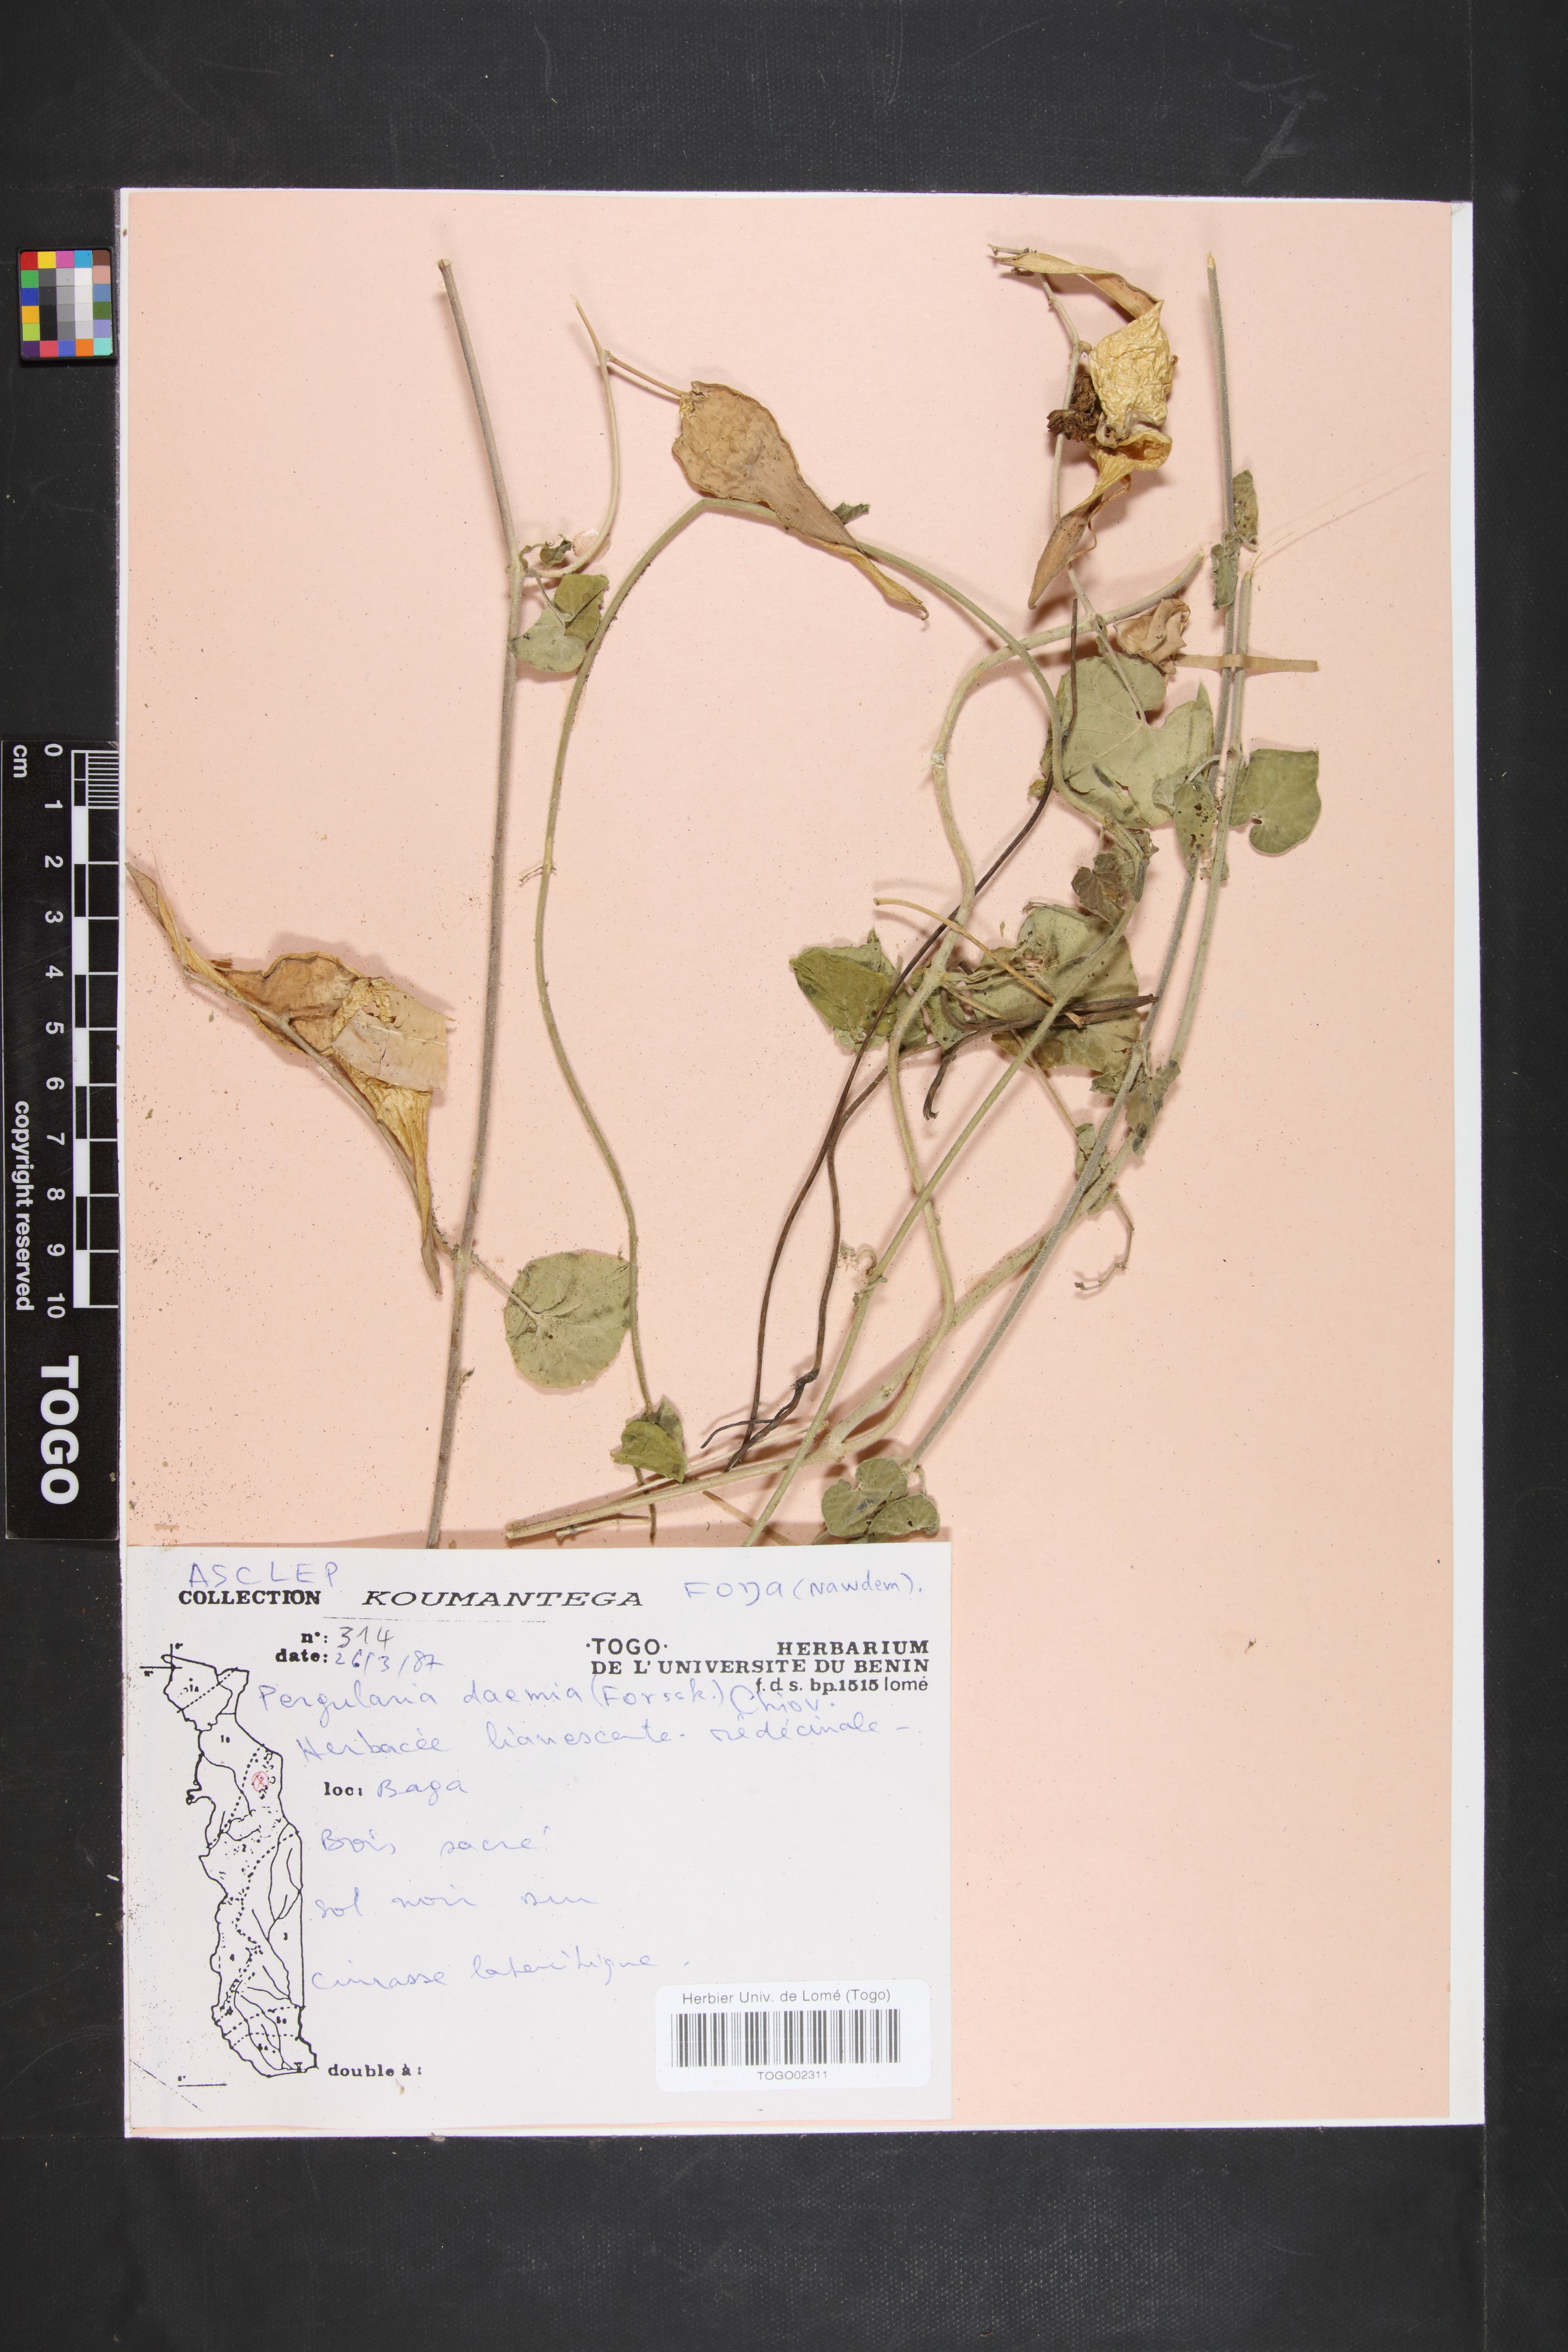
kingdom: Plantae
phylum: Tracheophyta
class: Magnoliopsida
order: Gentianales
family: Apocynaceae
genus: Pergularia
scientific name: Pergularia daemia
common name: Trellis-vine
